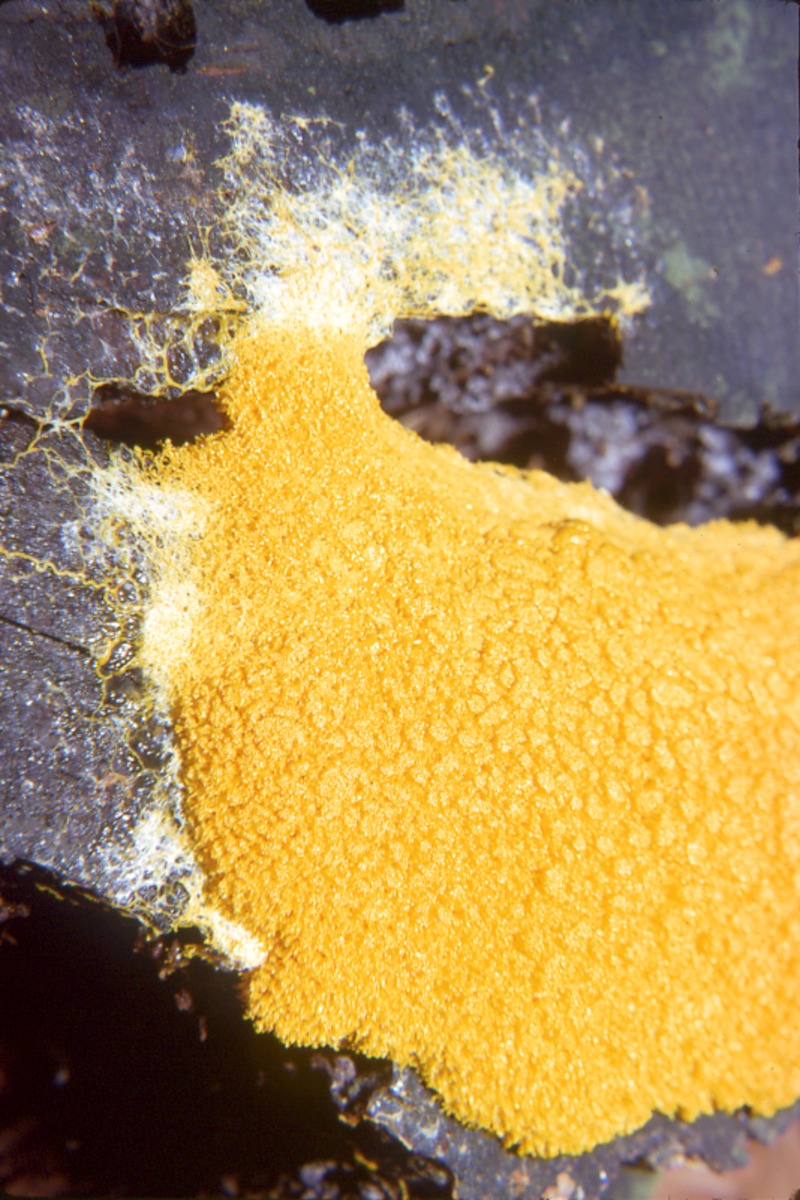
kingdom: Protozoa
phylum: Mycetozoa
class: Myxomycetes
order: Physarales
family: Physaraceae
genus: Fuligo
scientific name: Fuligo septica
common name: Dog vomit slime mold
